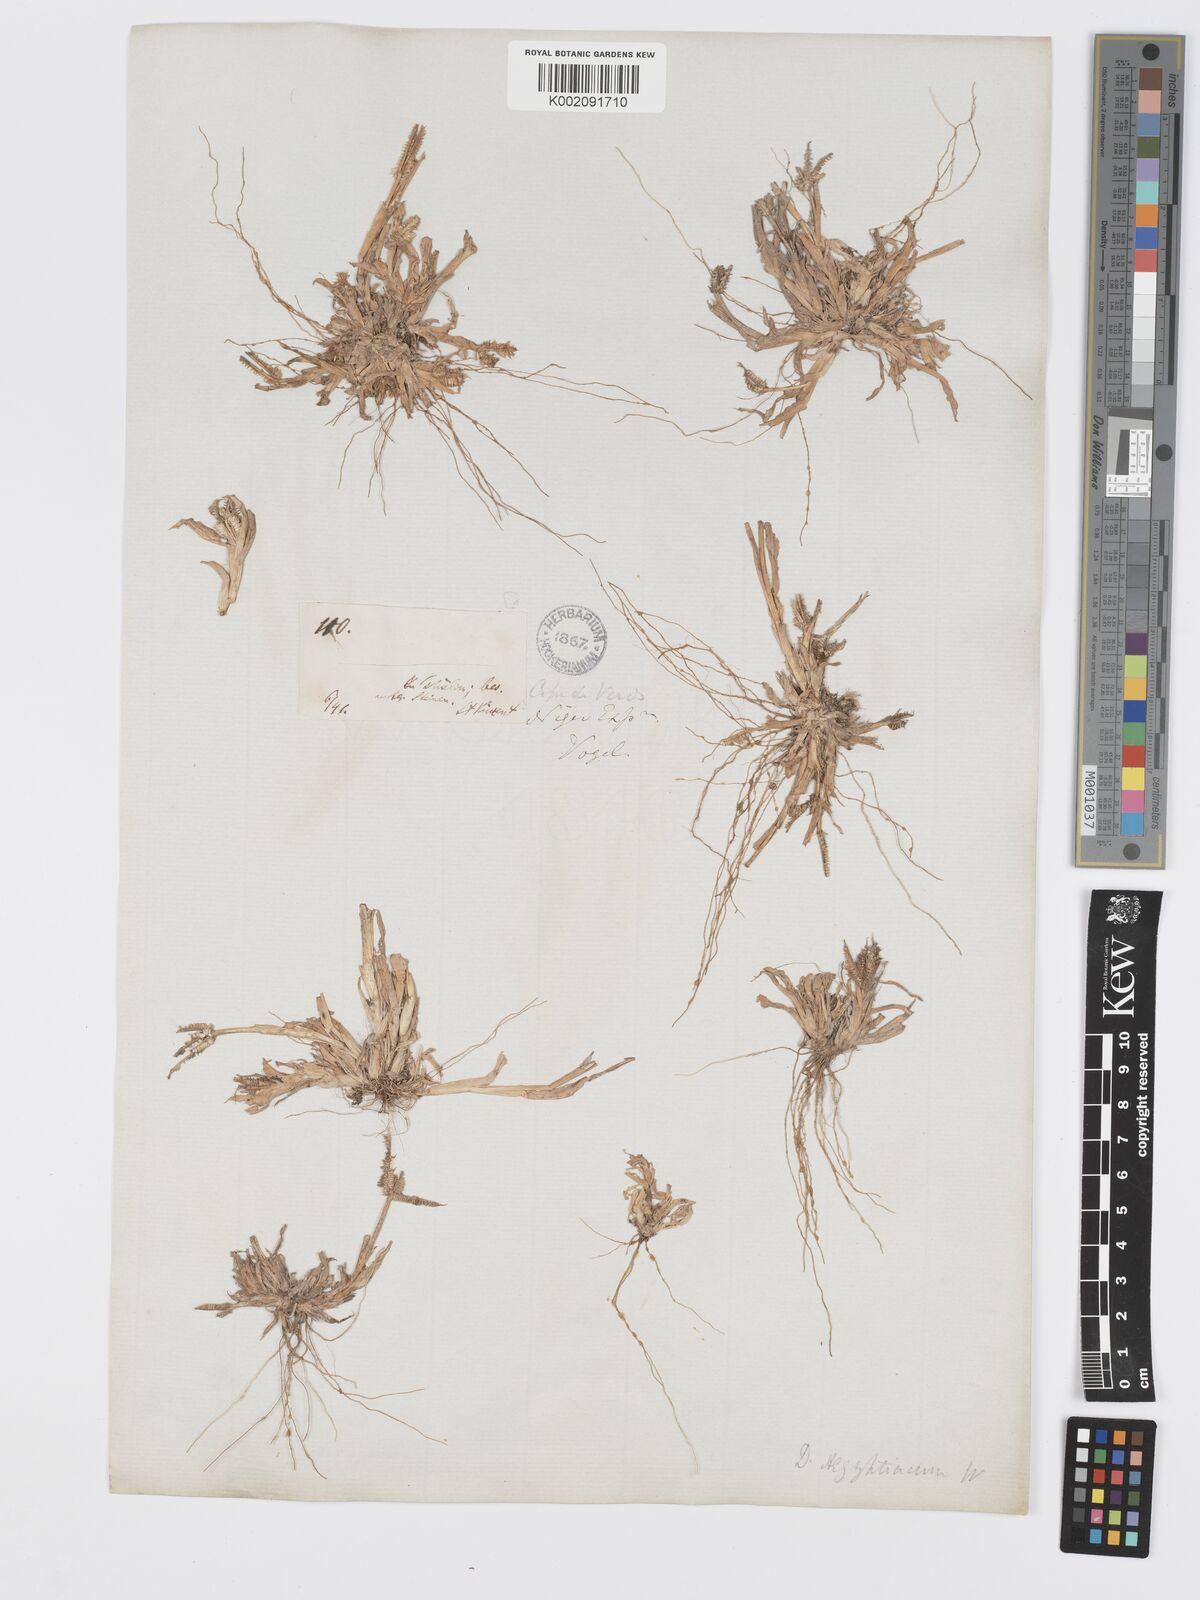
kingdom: Plantae
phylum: Tracheophyta
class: Liliopsida
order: Poales
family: Poaceae
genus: Dactyloctenium
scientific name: Dactyloctenium aegyptium
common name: Egyptian grass
